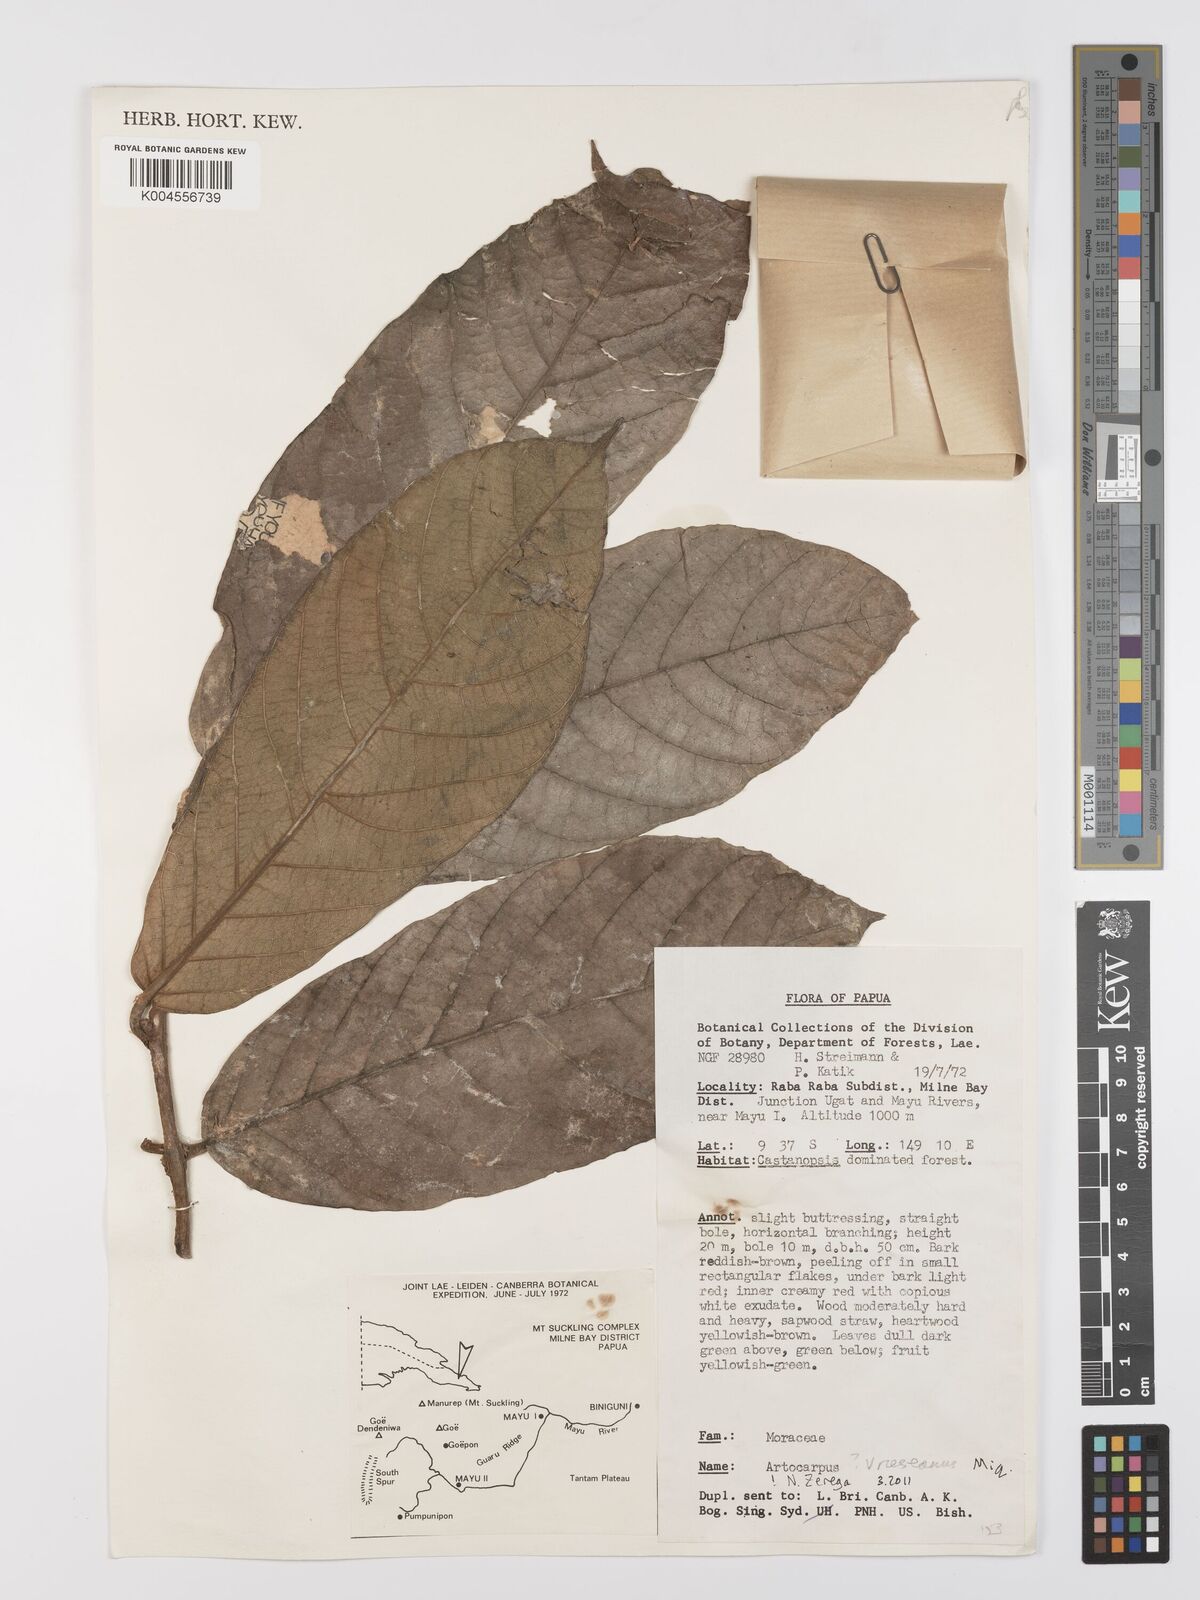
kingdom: Plantae
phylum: Tracheophyta
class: Magnoliopsida
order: Rosales
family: Moraceae
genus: Artocarpus
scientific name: Artocarpus vrieseanus
